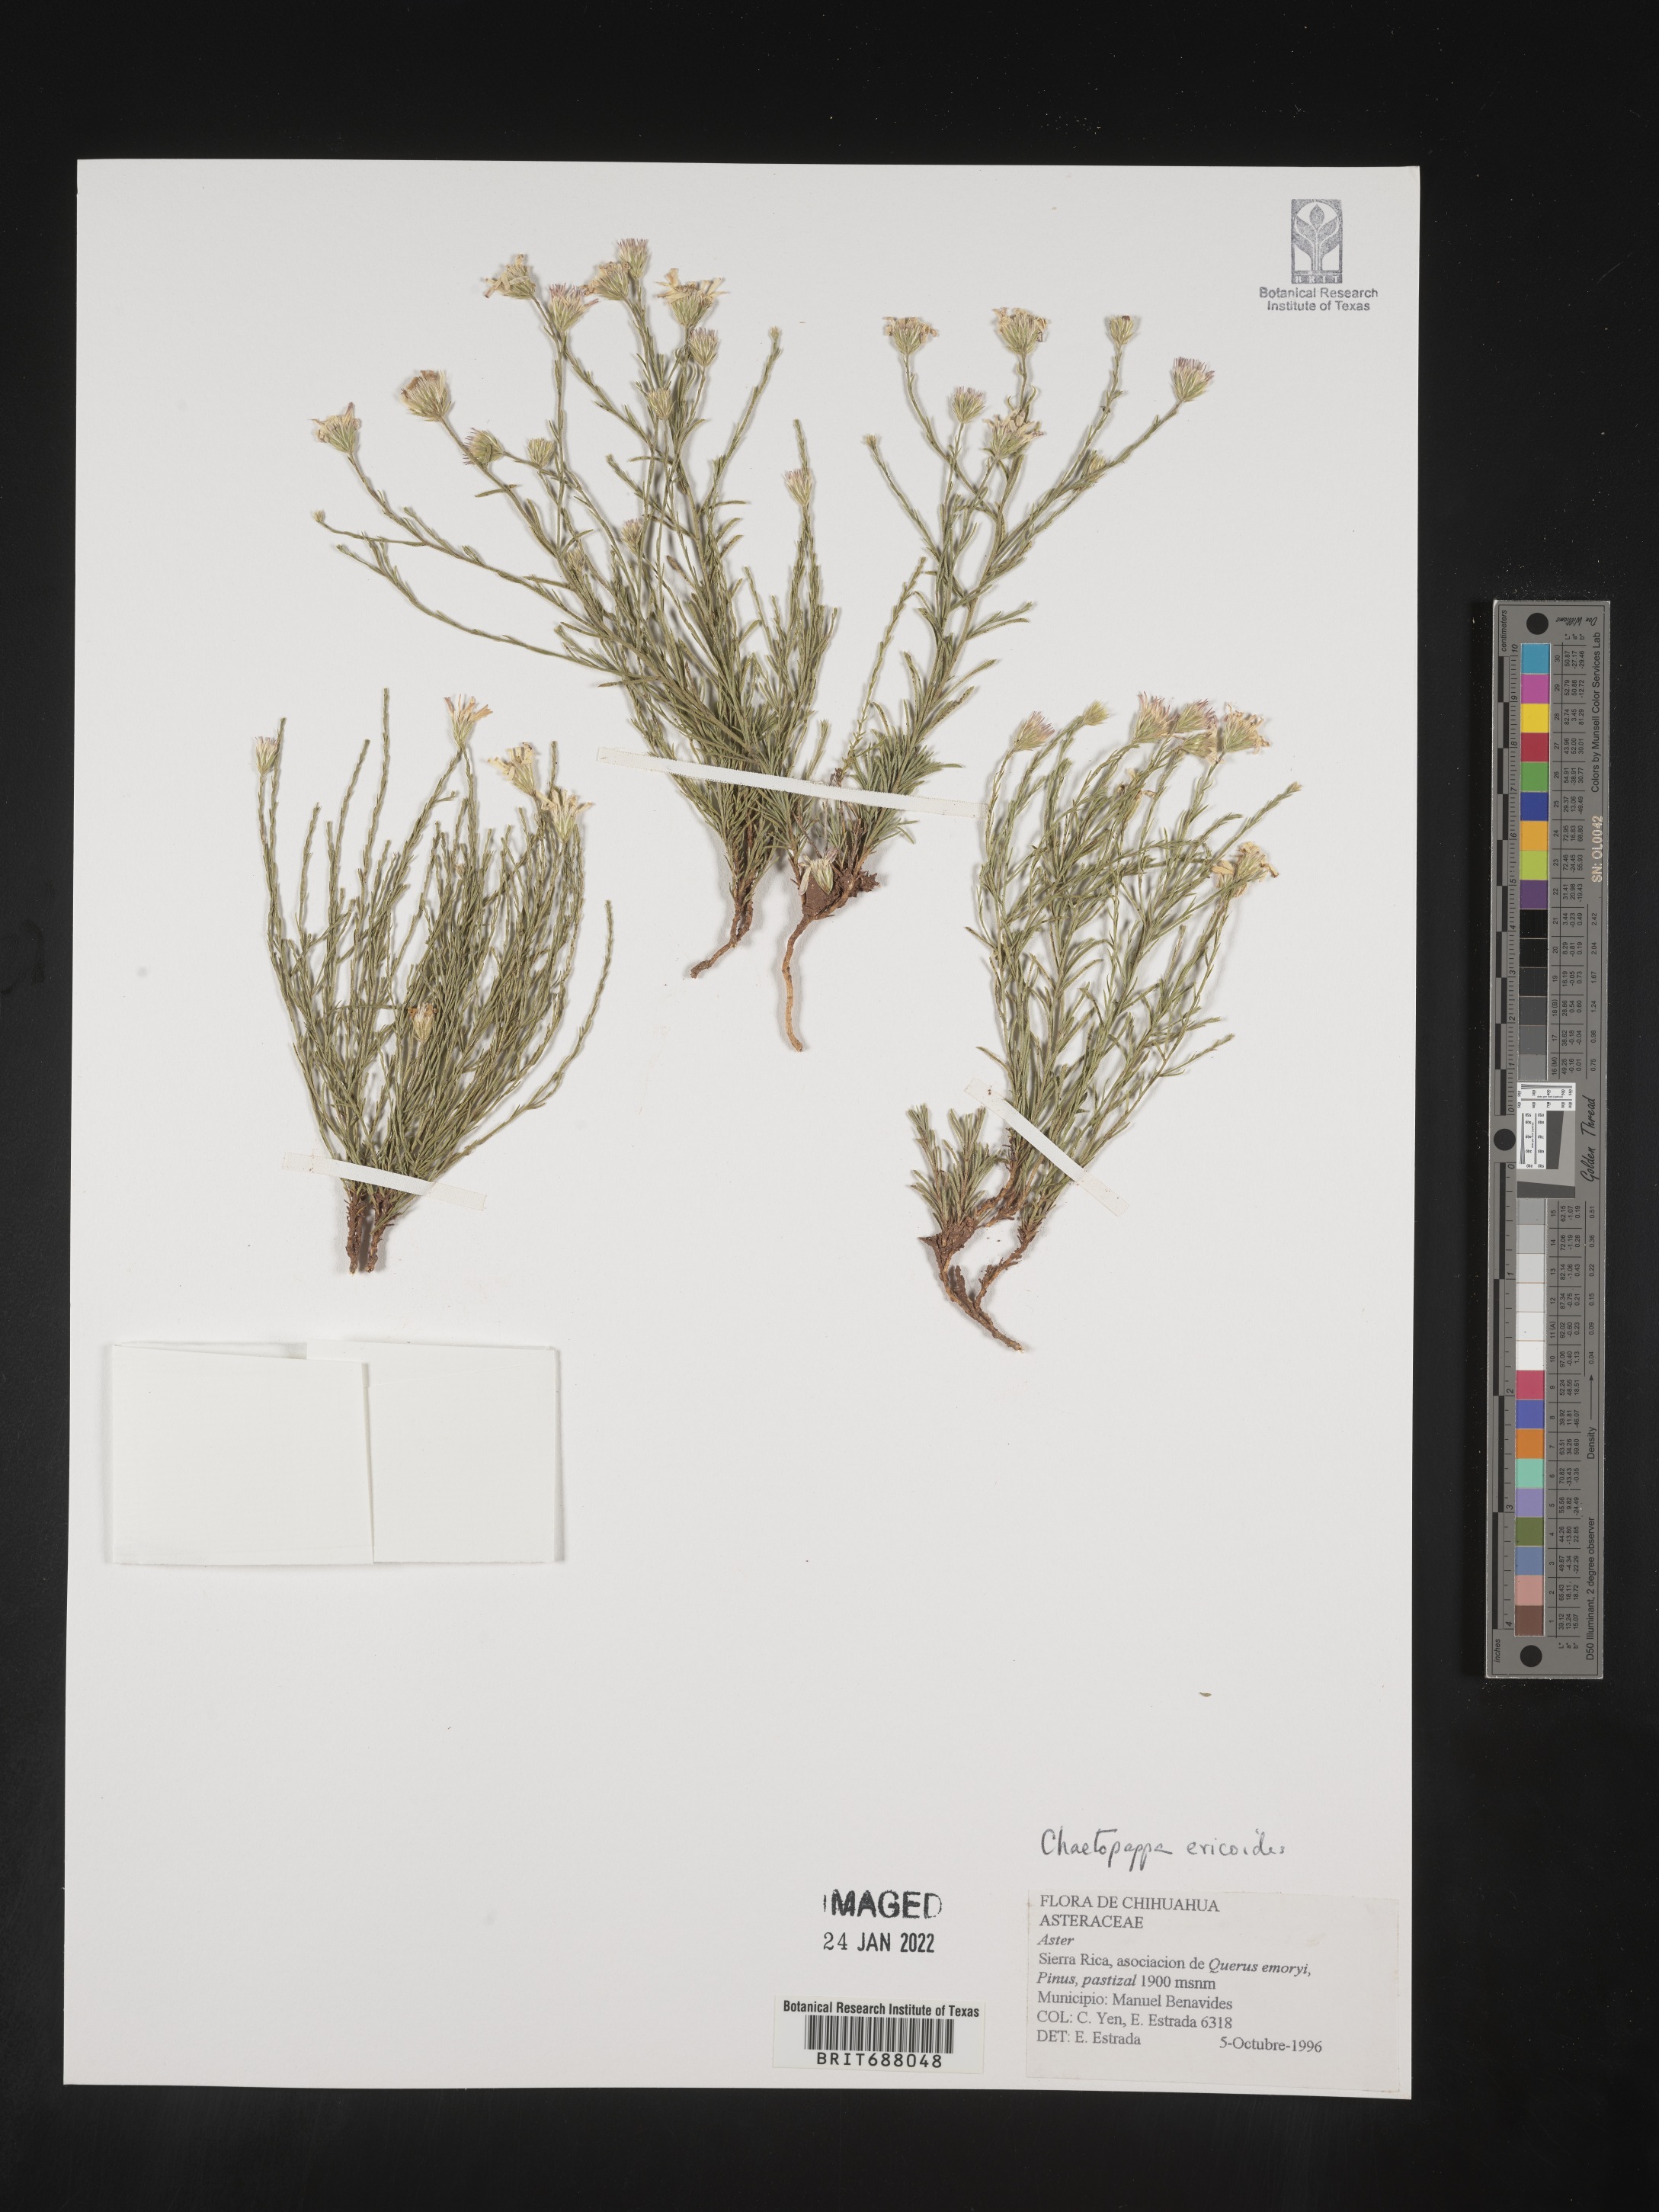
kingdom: Plantae
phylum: Tracheophyta
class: Magnoliopsida
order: Asterales
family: Asteraceae
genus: Chaetopappa
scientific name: Chaetopappa
